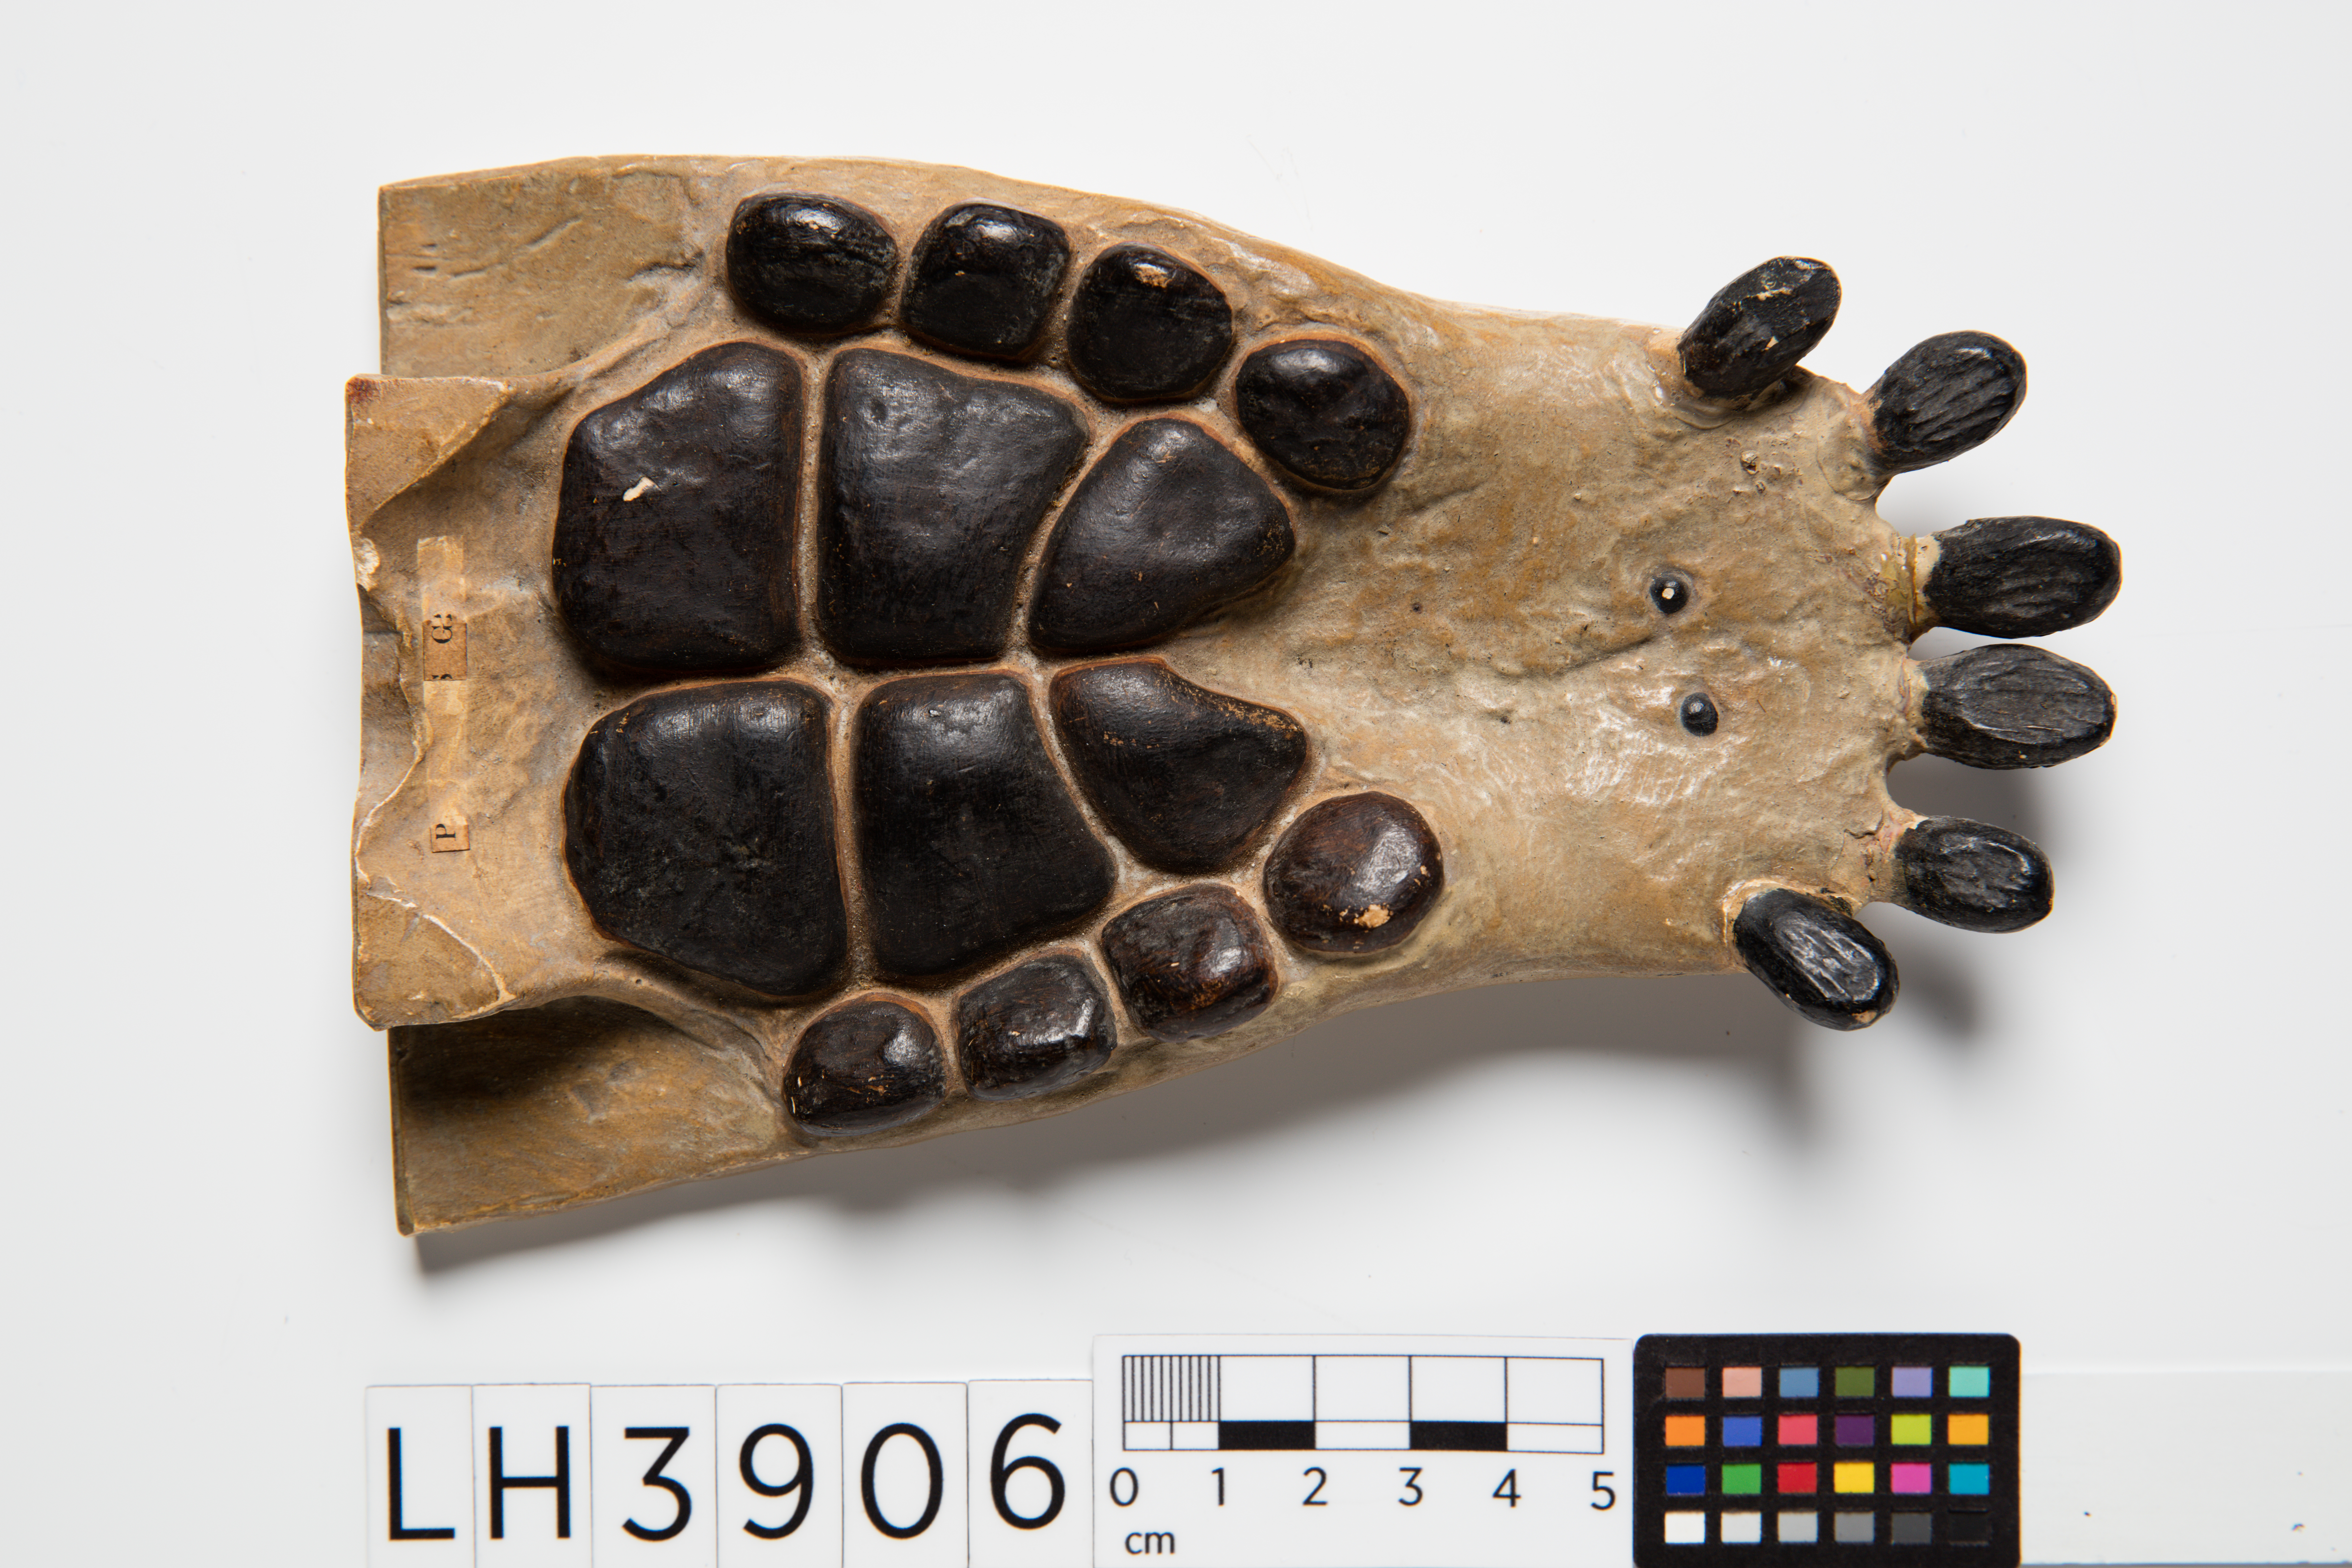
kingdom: Animalia
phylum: Chordata
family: Placodontidae
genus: Placodus
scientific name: Placodus gigas
